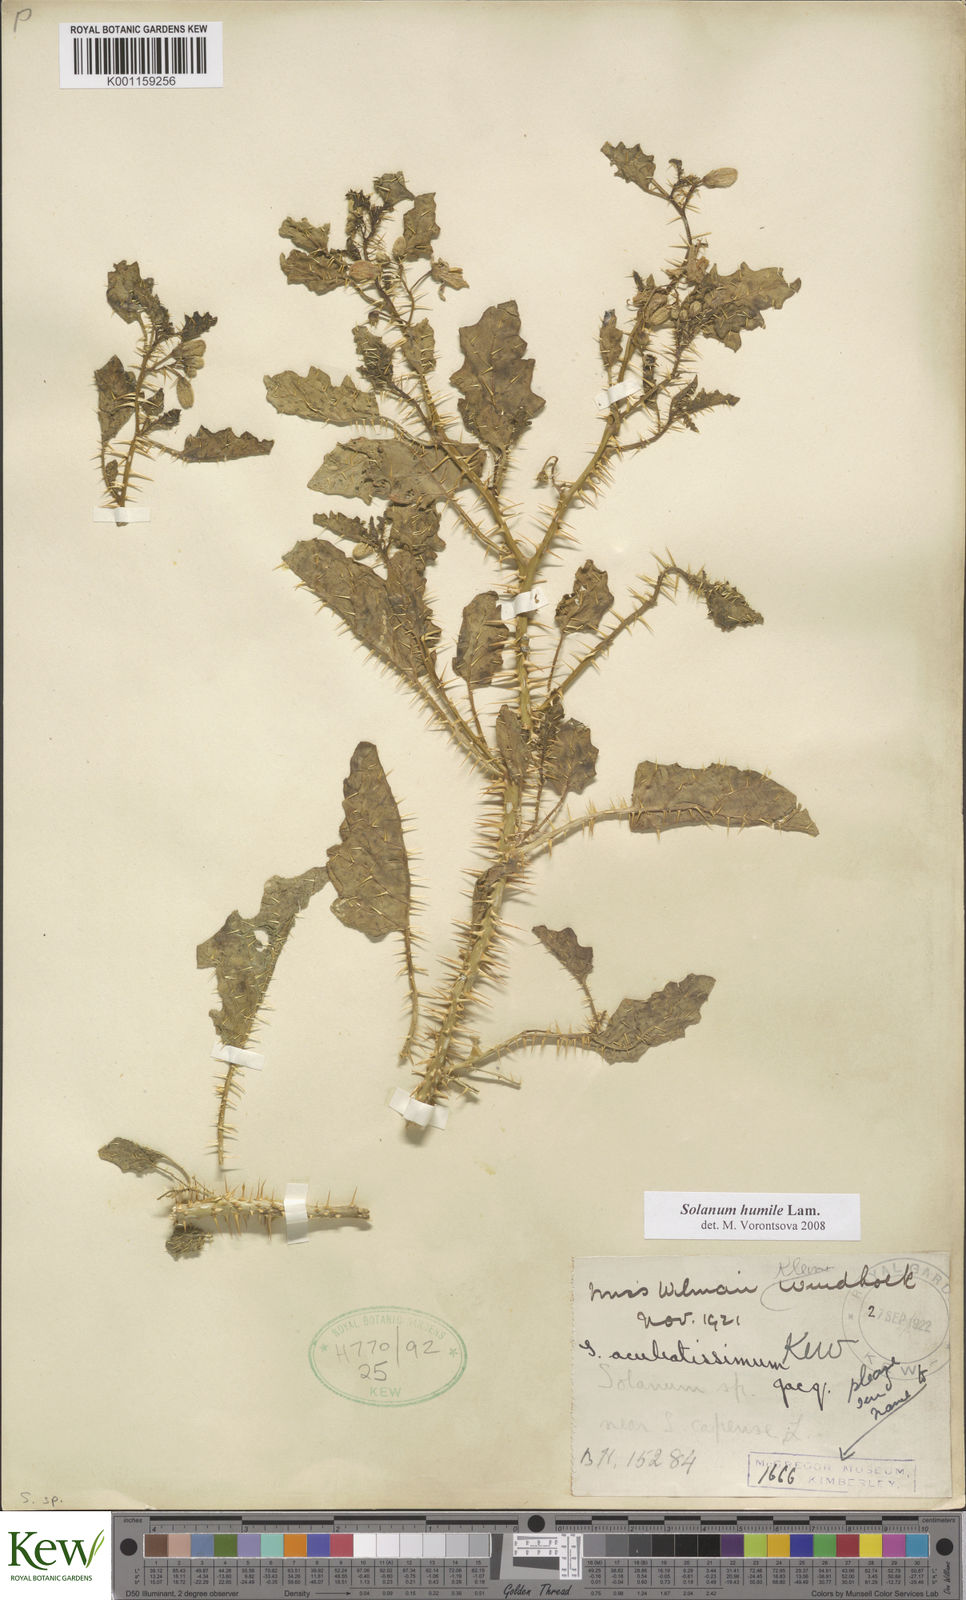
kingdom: Plantae
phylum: Tracheophyta
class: Magnoliopsida
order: Solanales
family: Solanaceae
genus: Solanum
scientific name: Solanum humile
